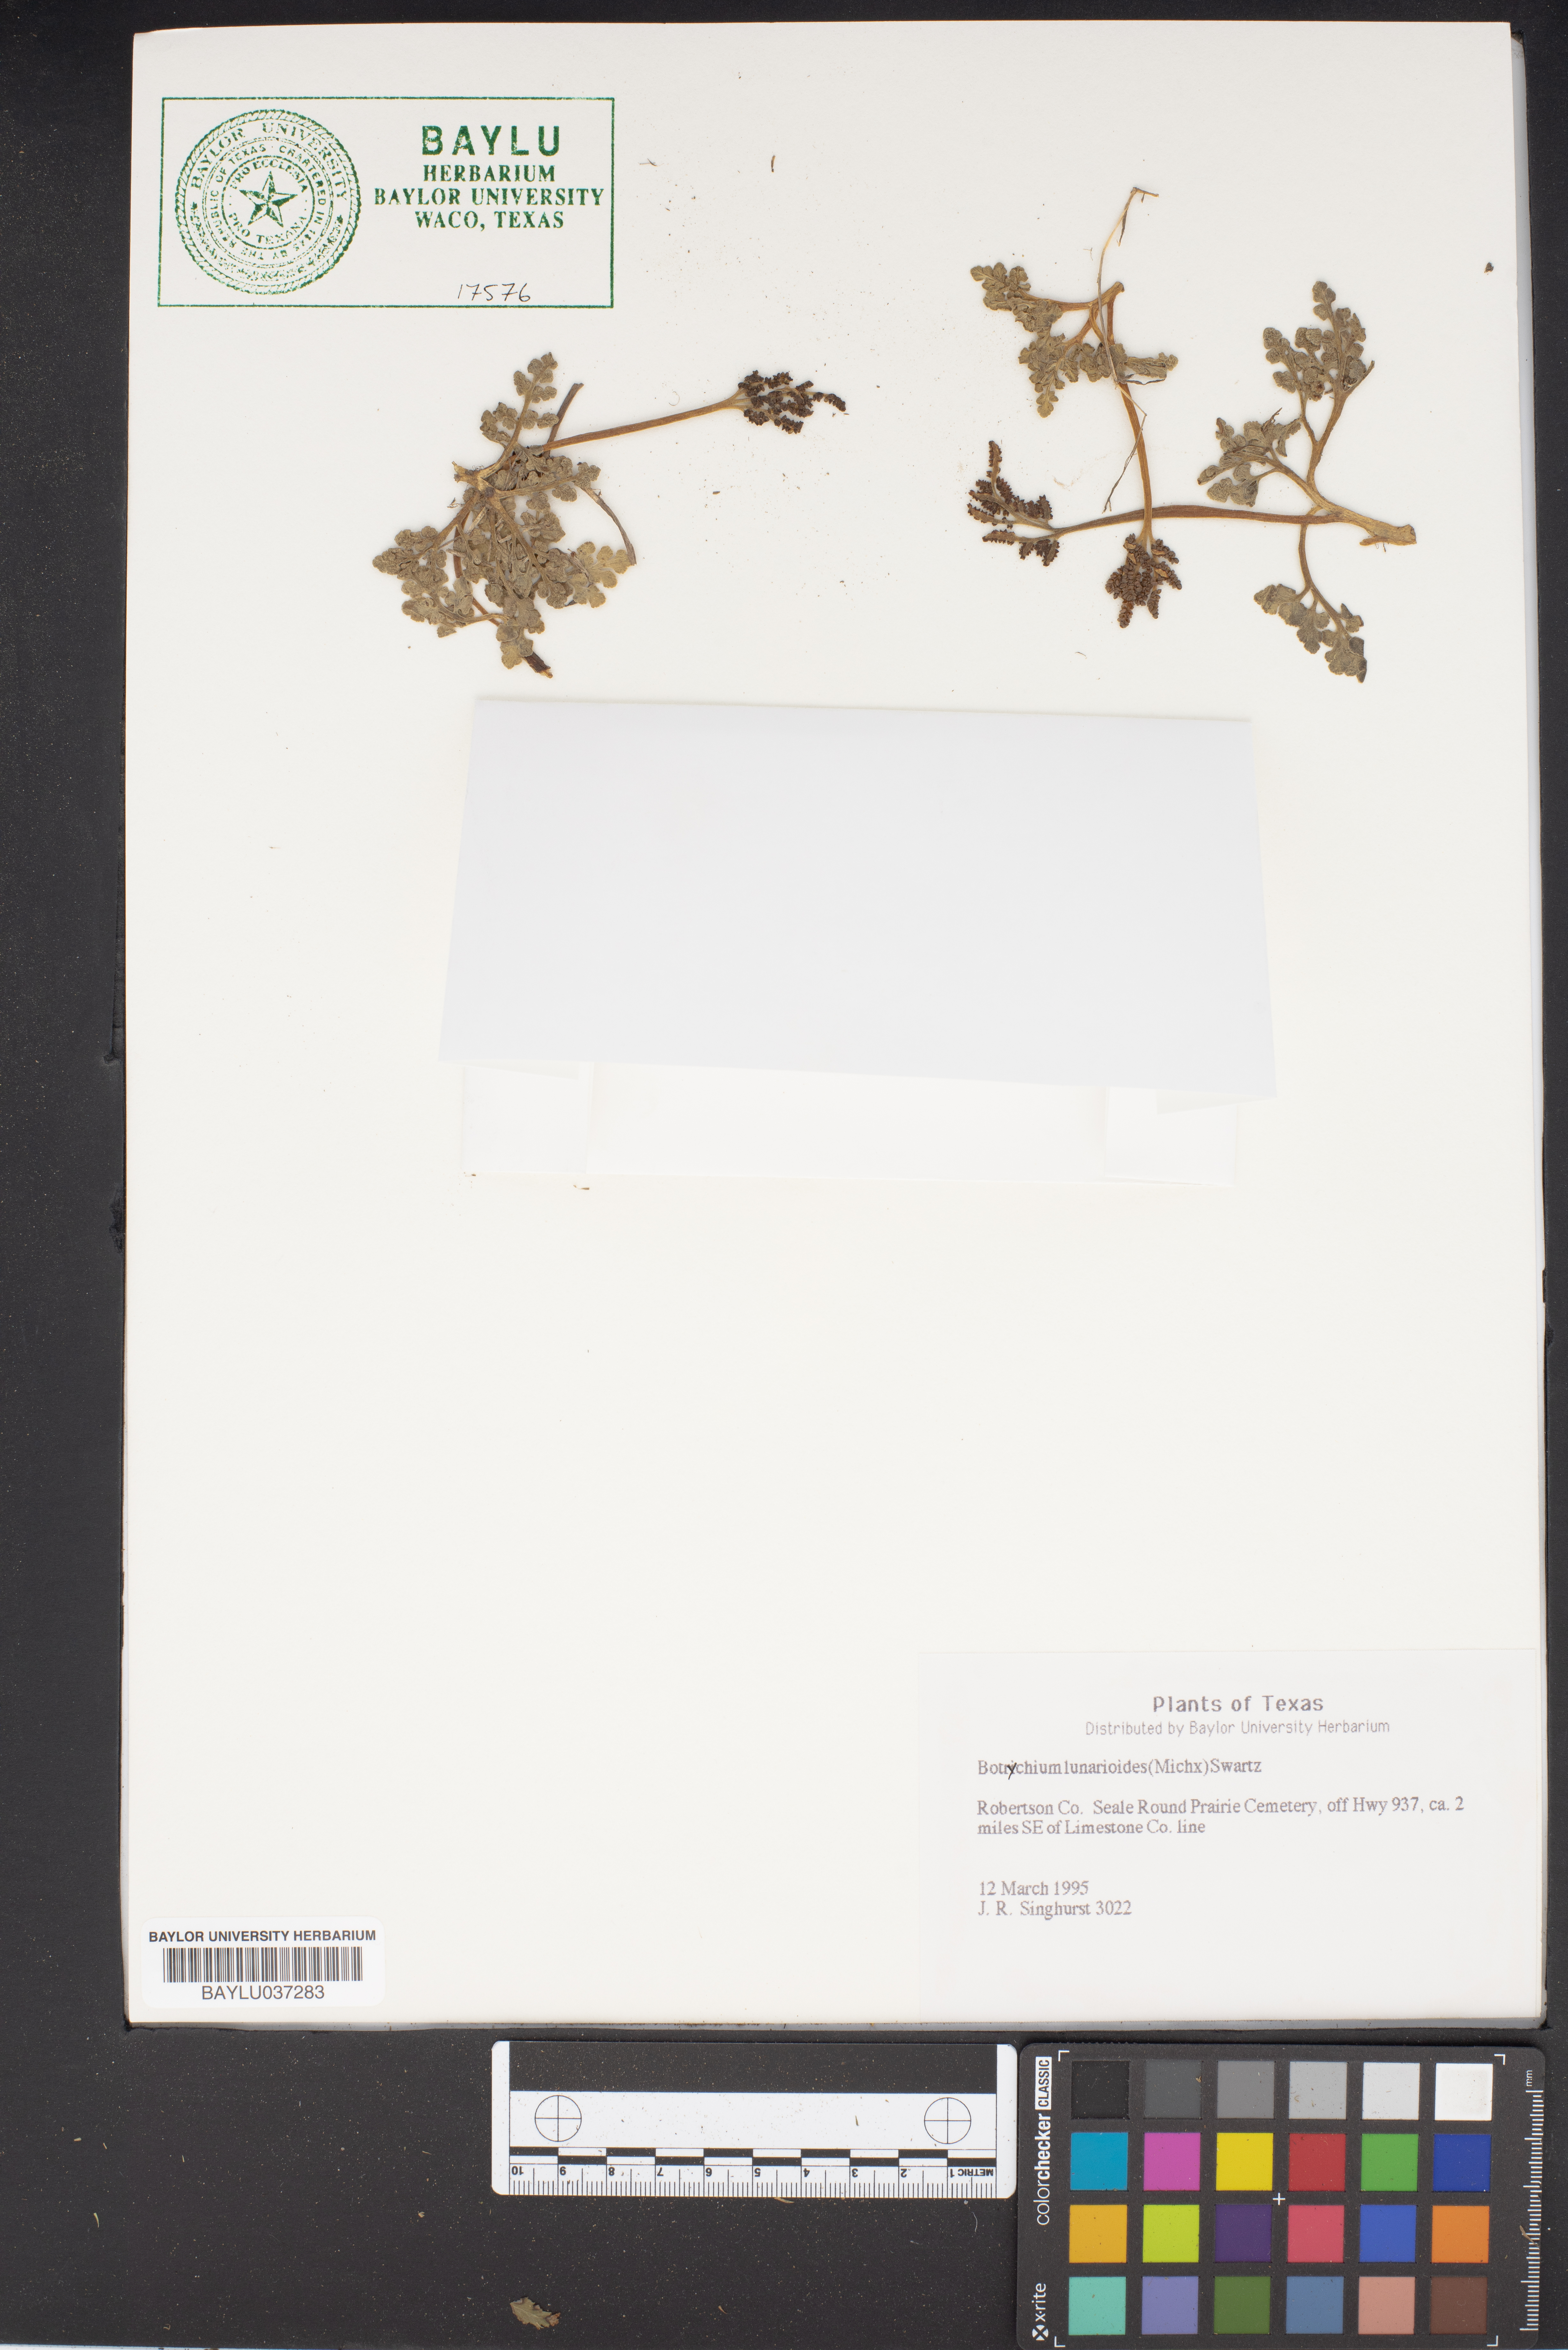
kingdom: Plantae
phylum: Tracheophyta
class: Polypodiopsida
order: Ophioglossales
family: Ophioglossaceae
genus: Sceptridium
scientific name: Sceptridium lunarioides
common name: Prostrate grapefern
